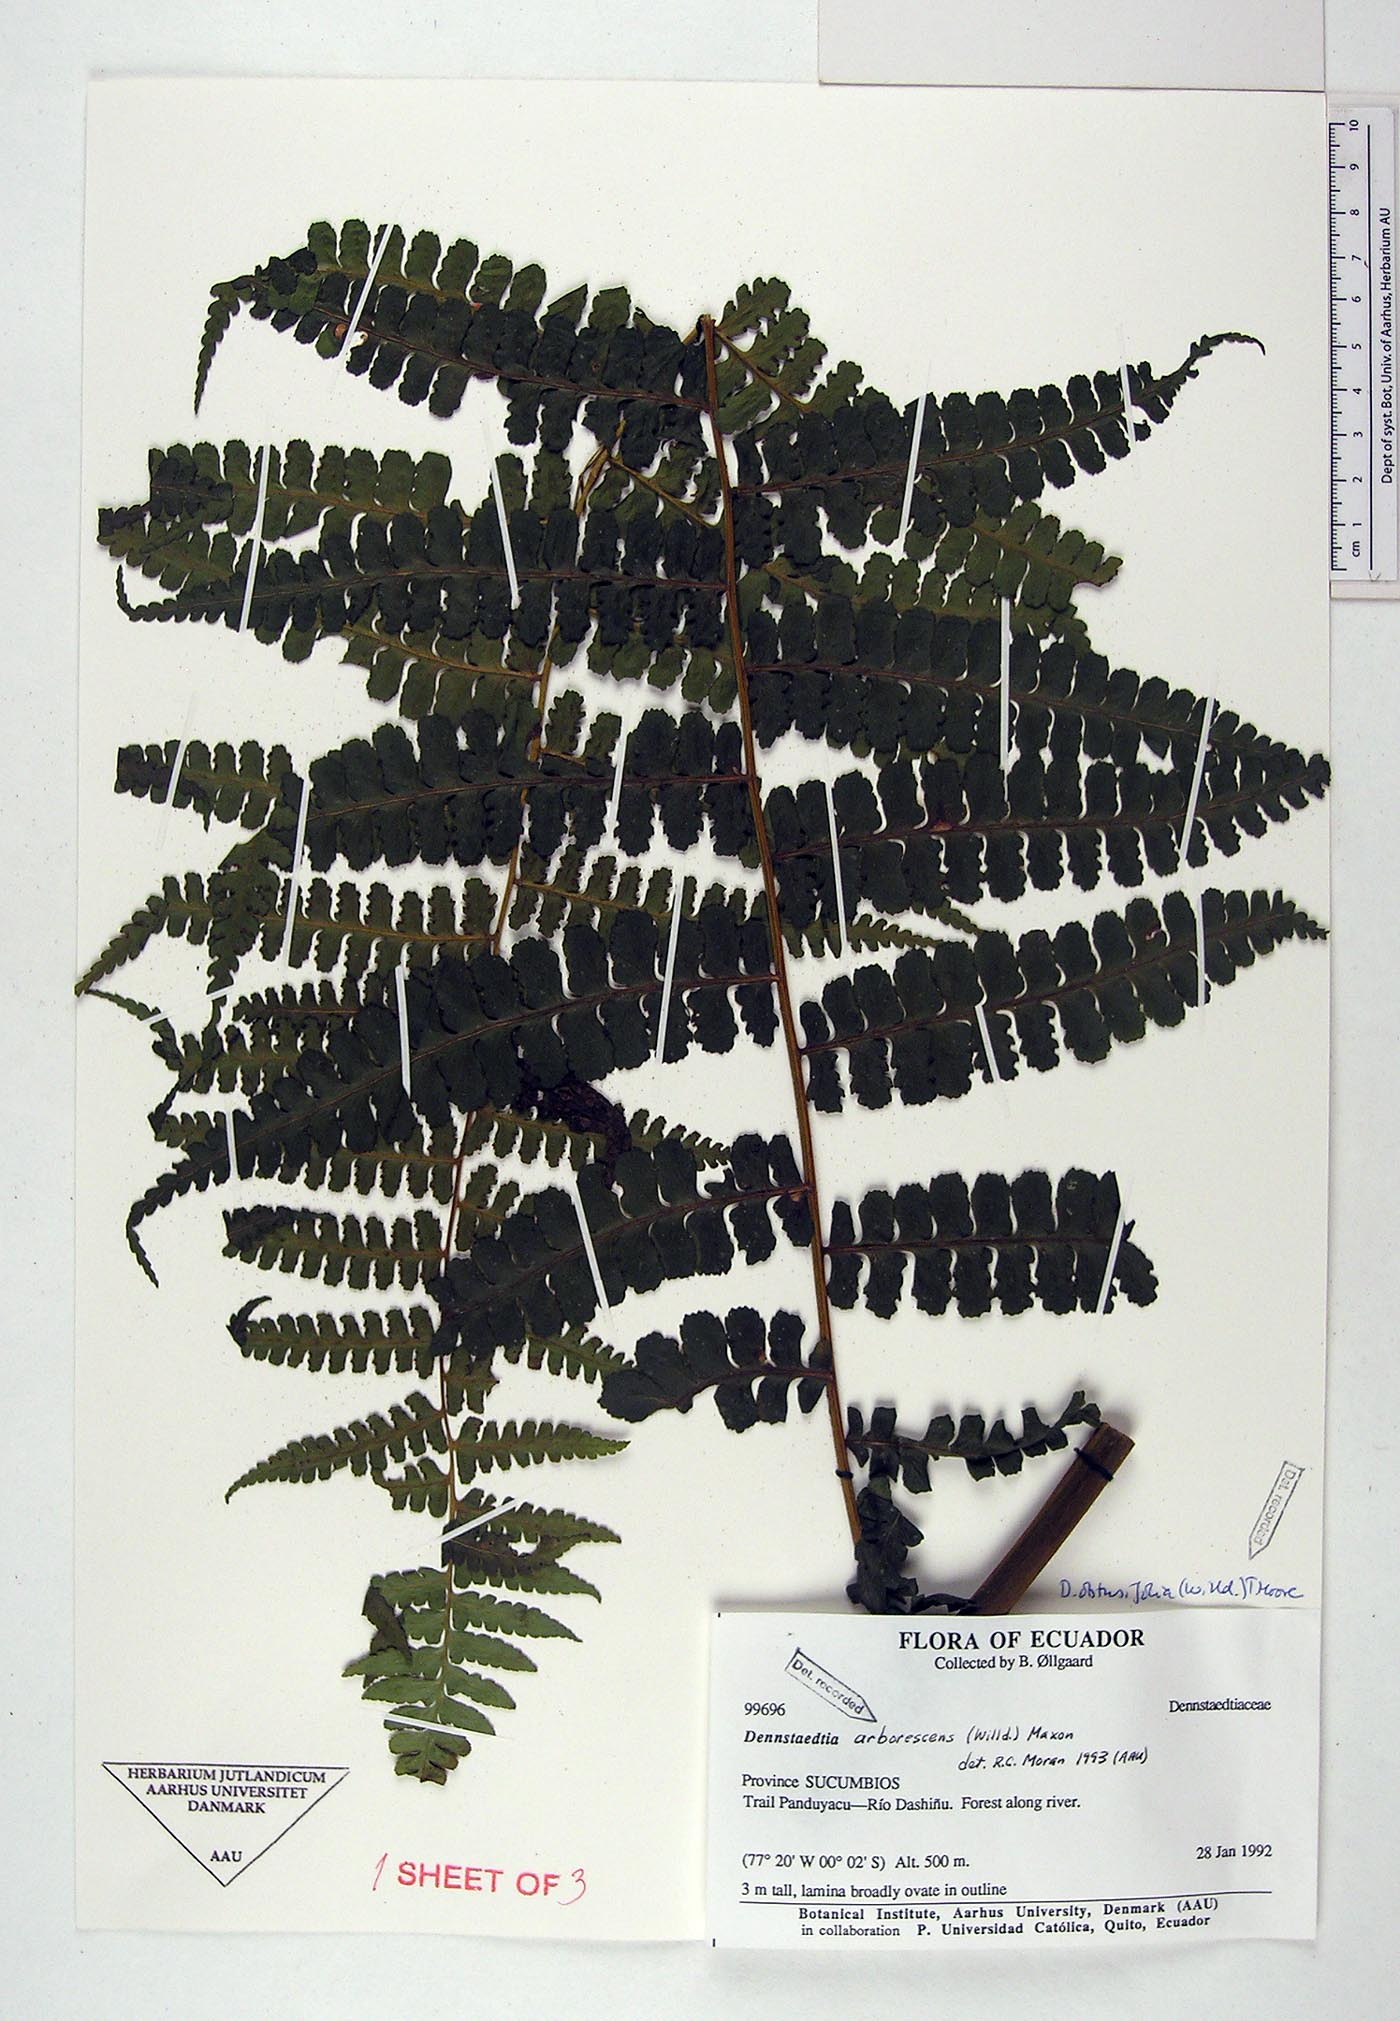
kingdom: Plantae
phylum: Tracheophyta
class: Polypodiopsida
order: Polypodiales
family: Dennstaedtiaceae
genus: Dennstaedtia
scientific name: Dennstaedtia obtusifolia
